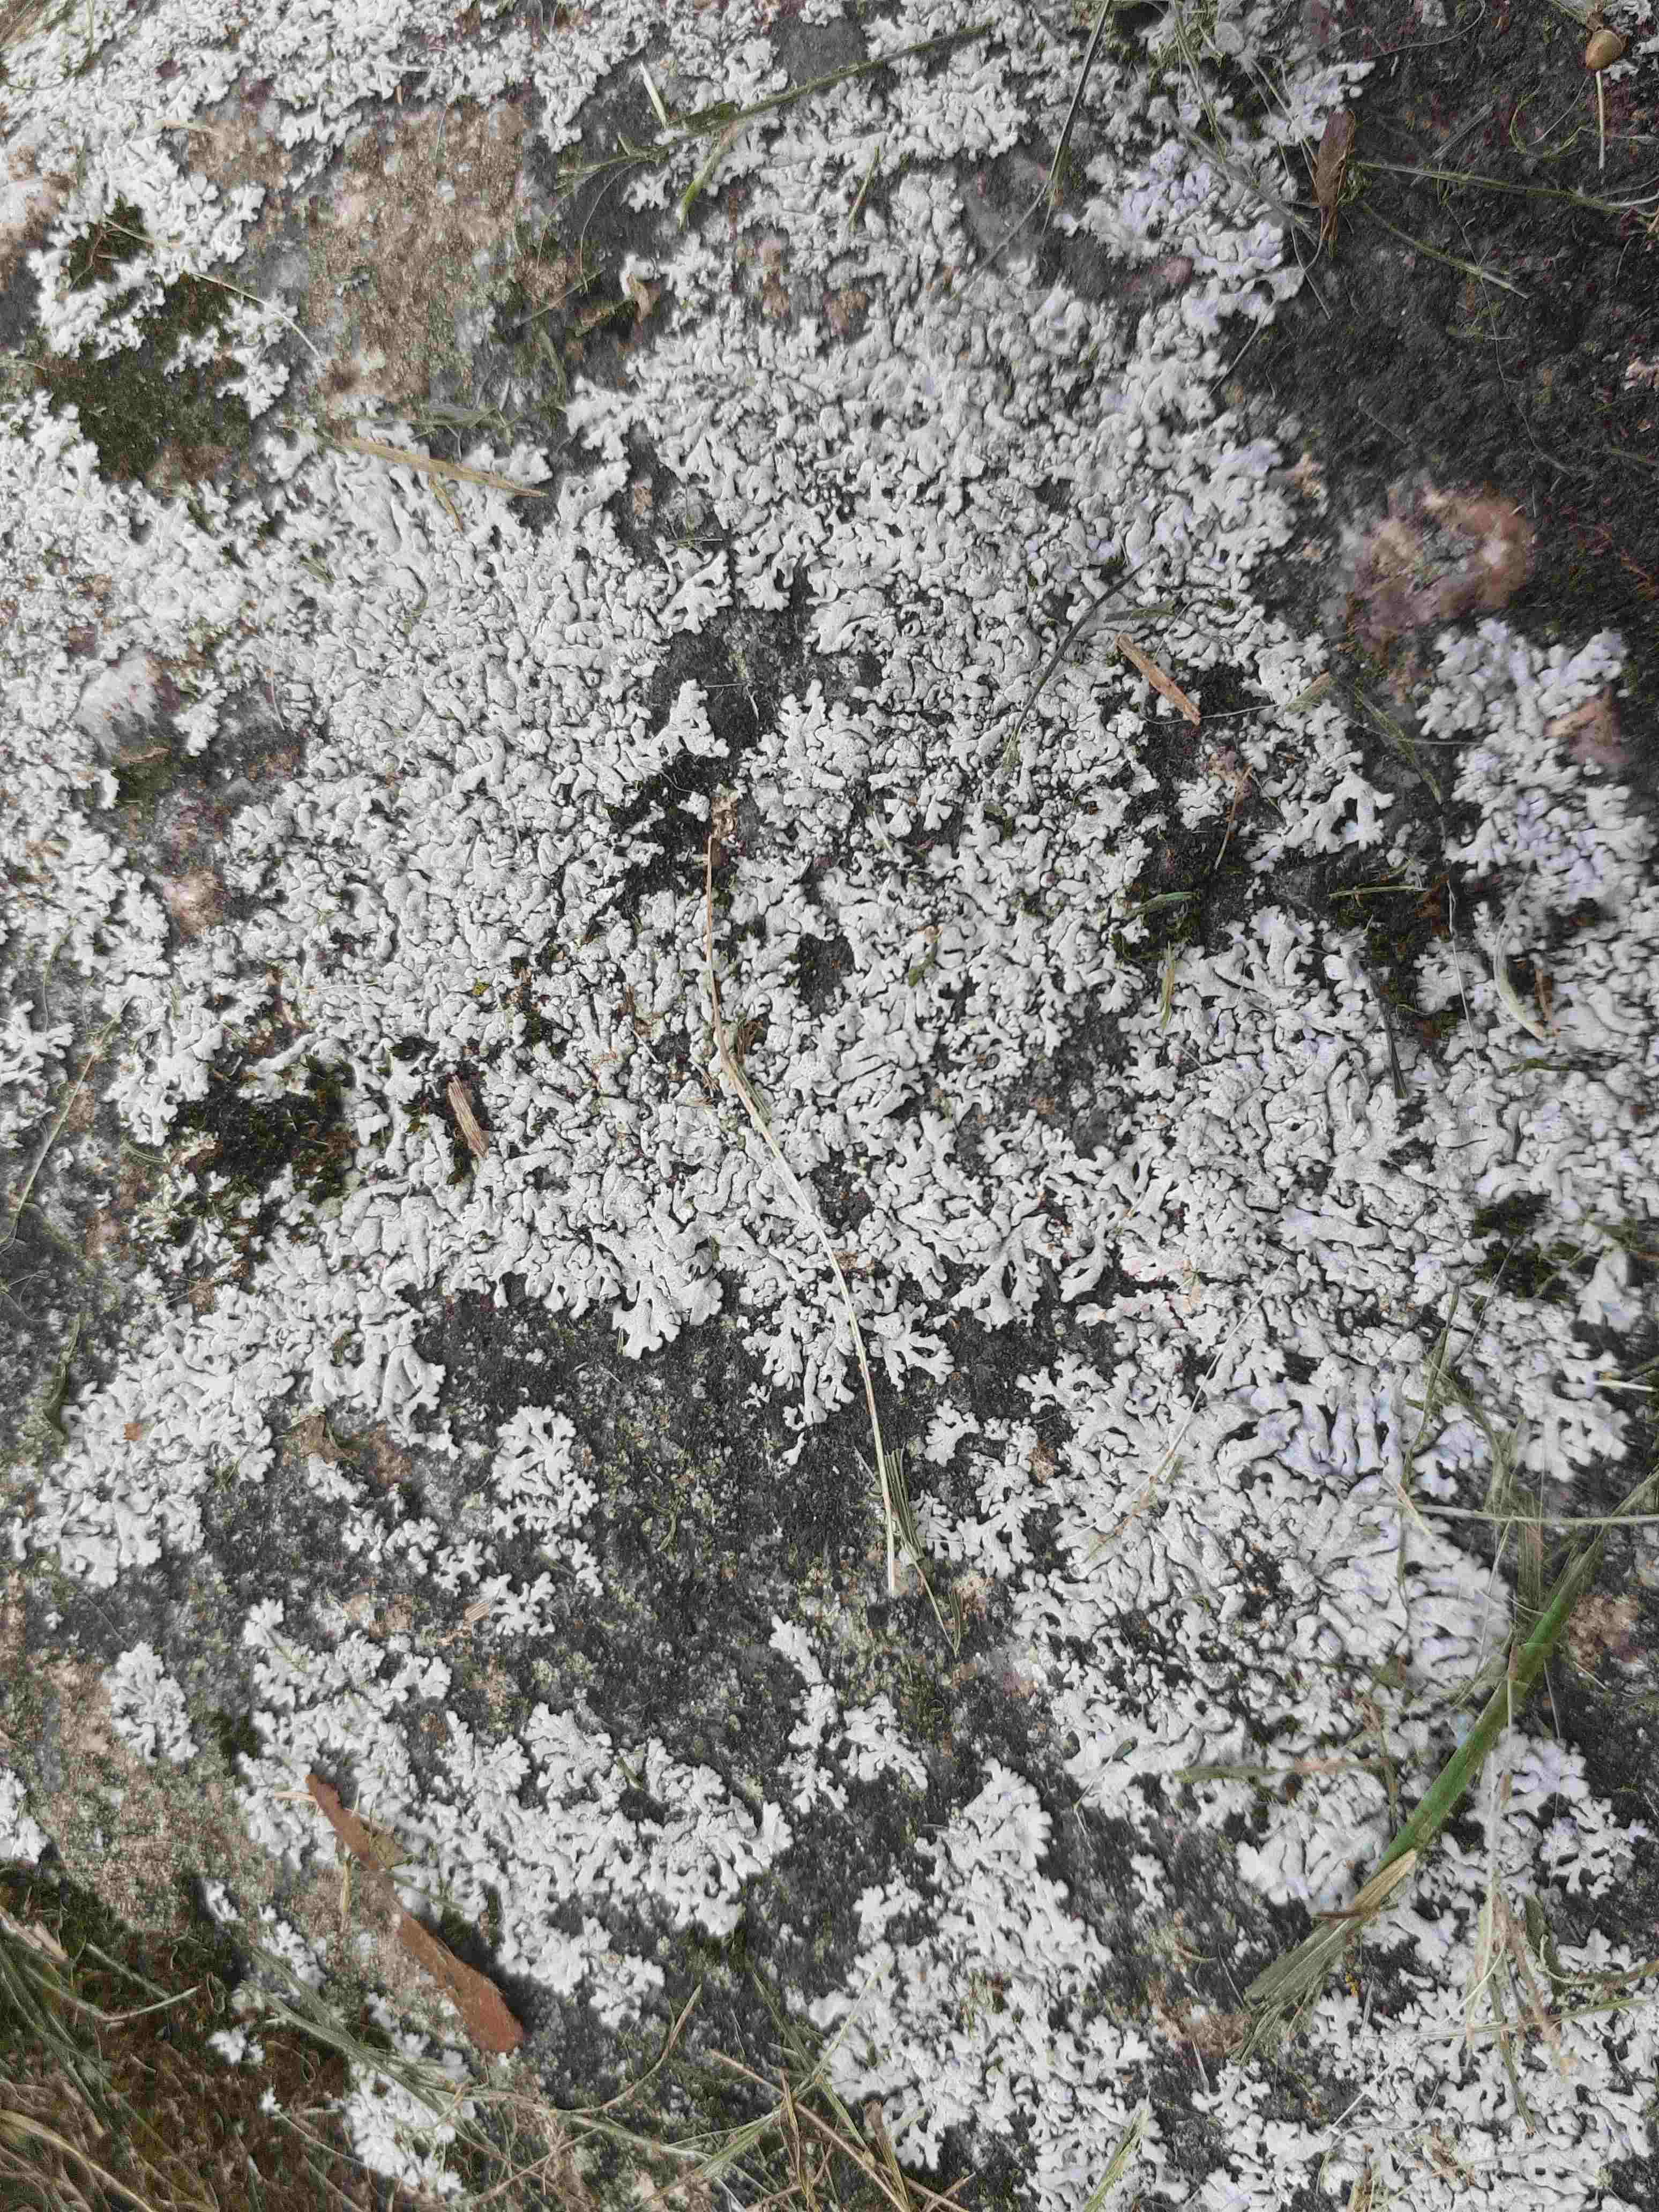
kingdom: Fungi
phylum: Ascomycota
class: Lecanoromycetes
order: Caliciales
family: Physciaceae
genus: Physcia
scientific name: Physcia caesia
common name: blågrå rosetlav
